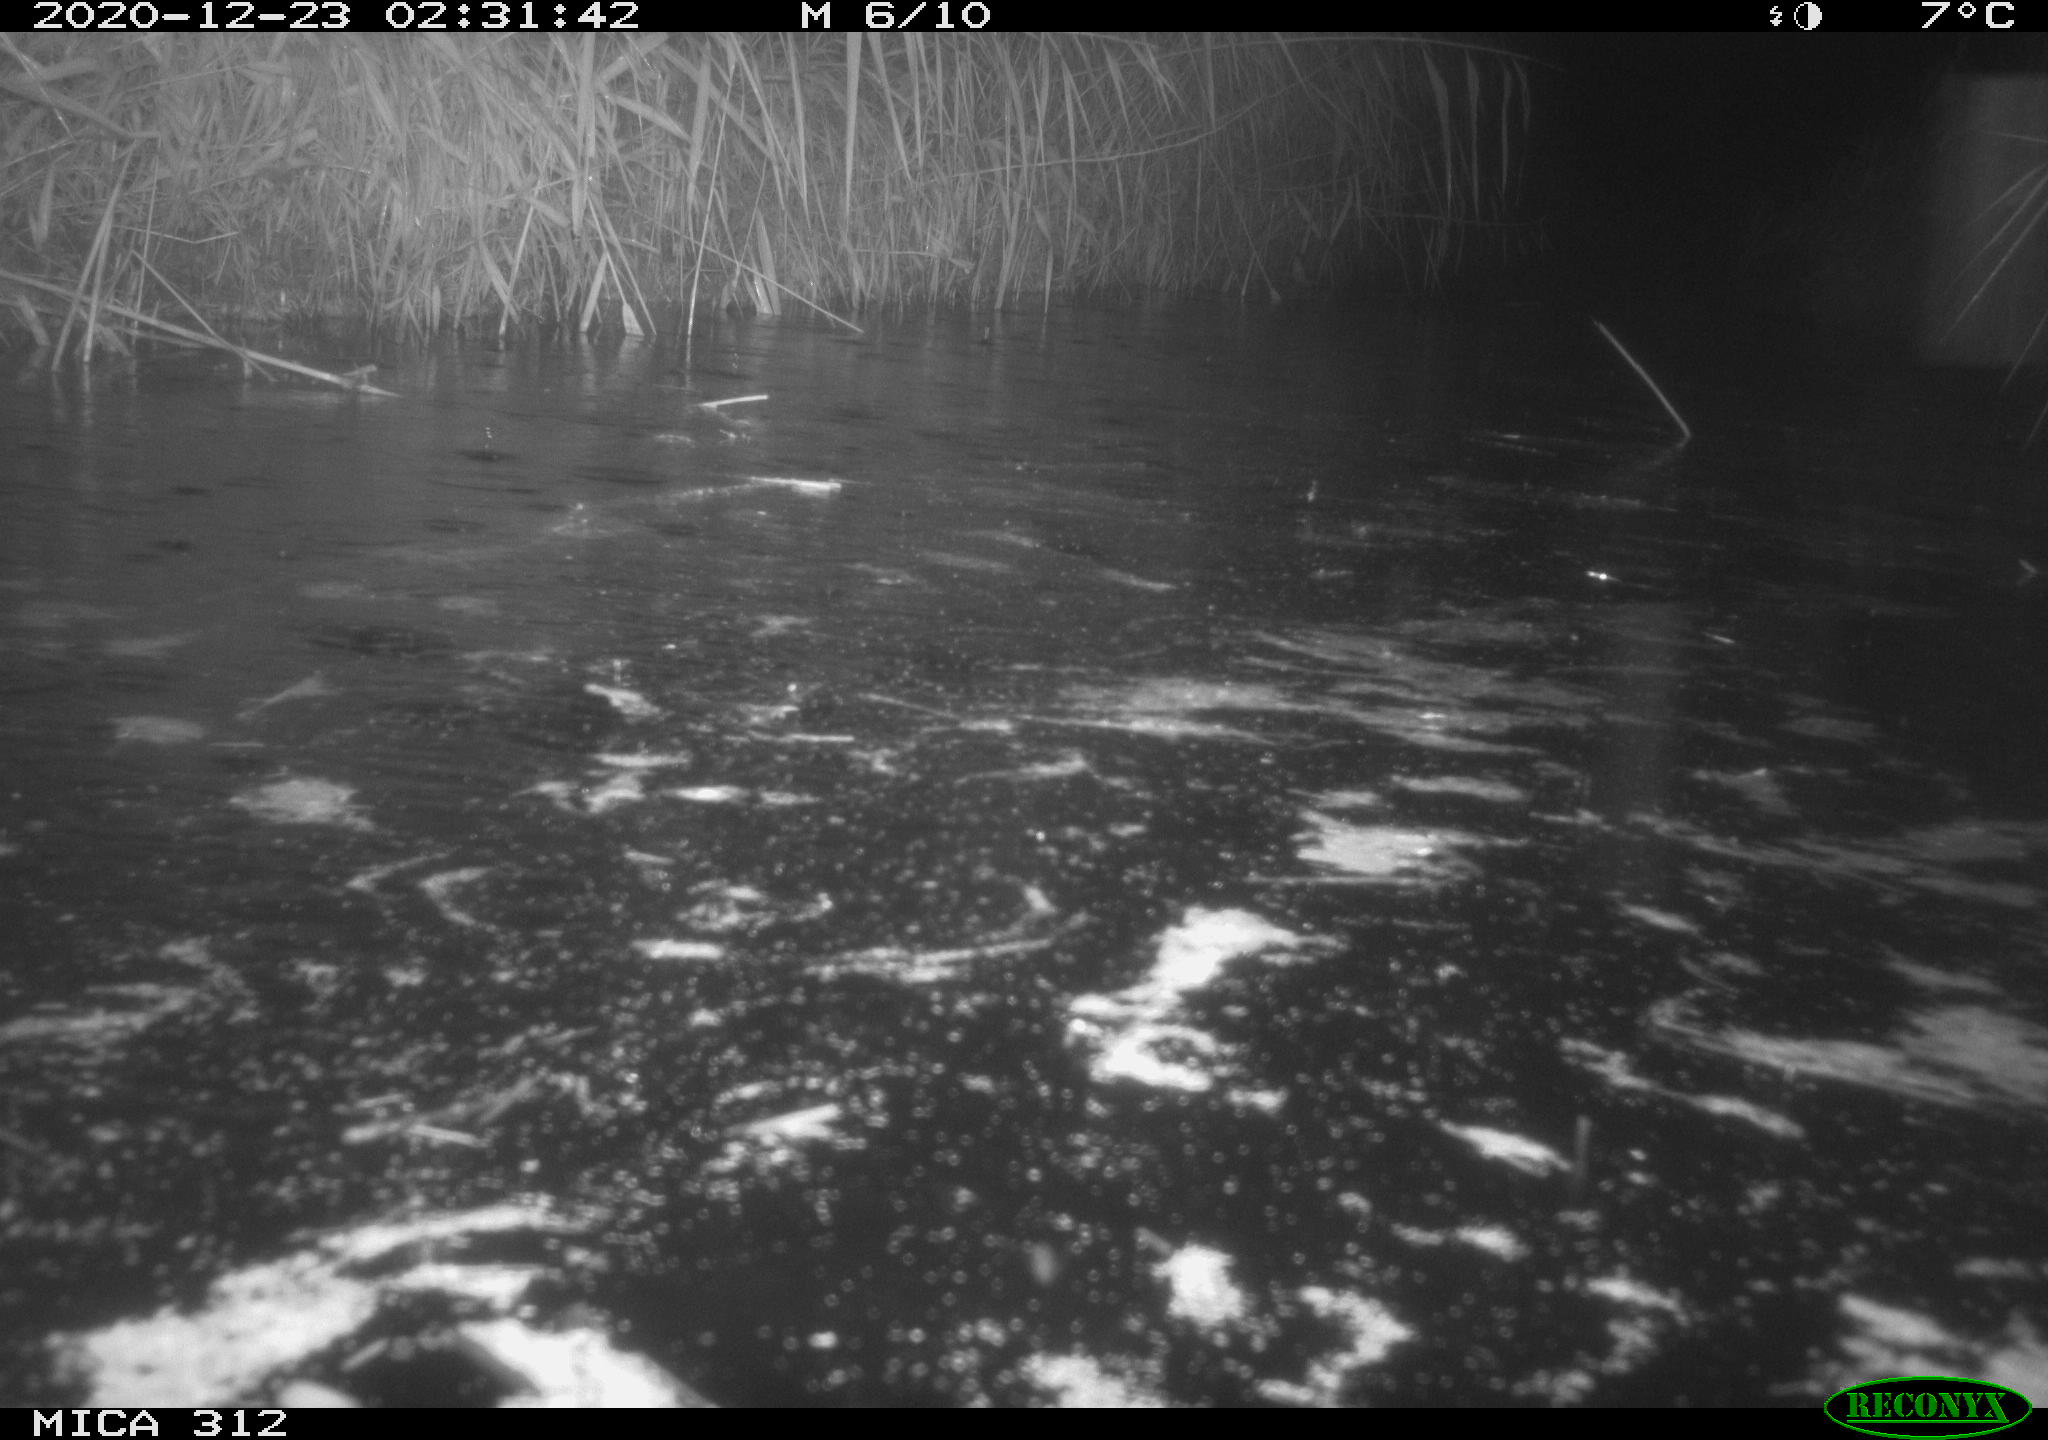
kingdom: Animalia
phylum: Chordata
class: Mammalia
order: Rodentia
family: Muridae
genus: Rattus
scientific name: Rattus norvegicus
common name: Brown rat
